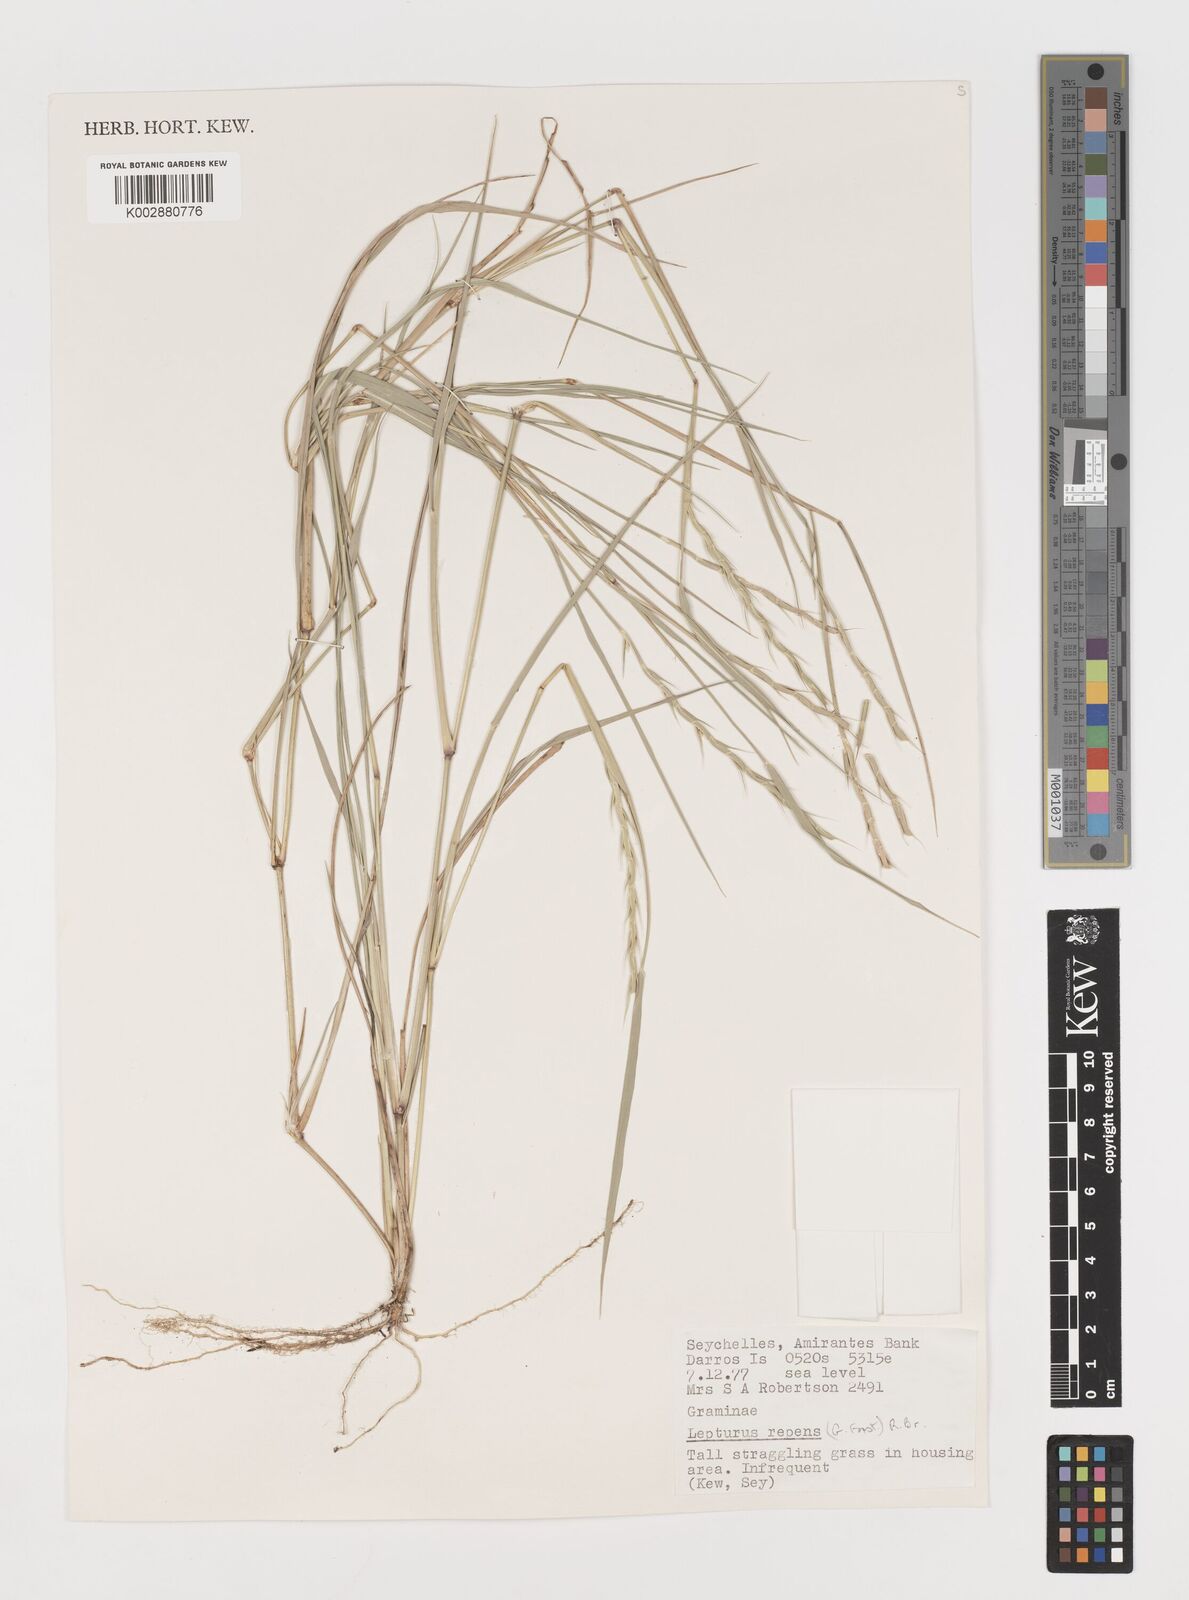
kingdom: Plantae
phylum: Tracheophyta
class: Liliopsida
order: Poales
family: Poaceae
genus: Lepturus
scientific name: Lepturus repens
